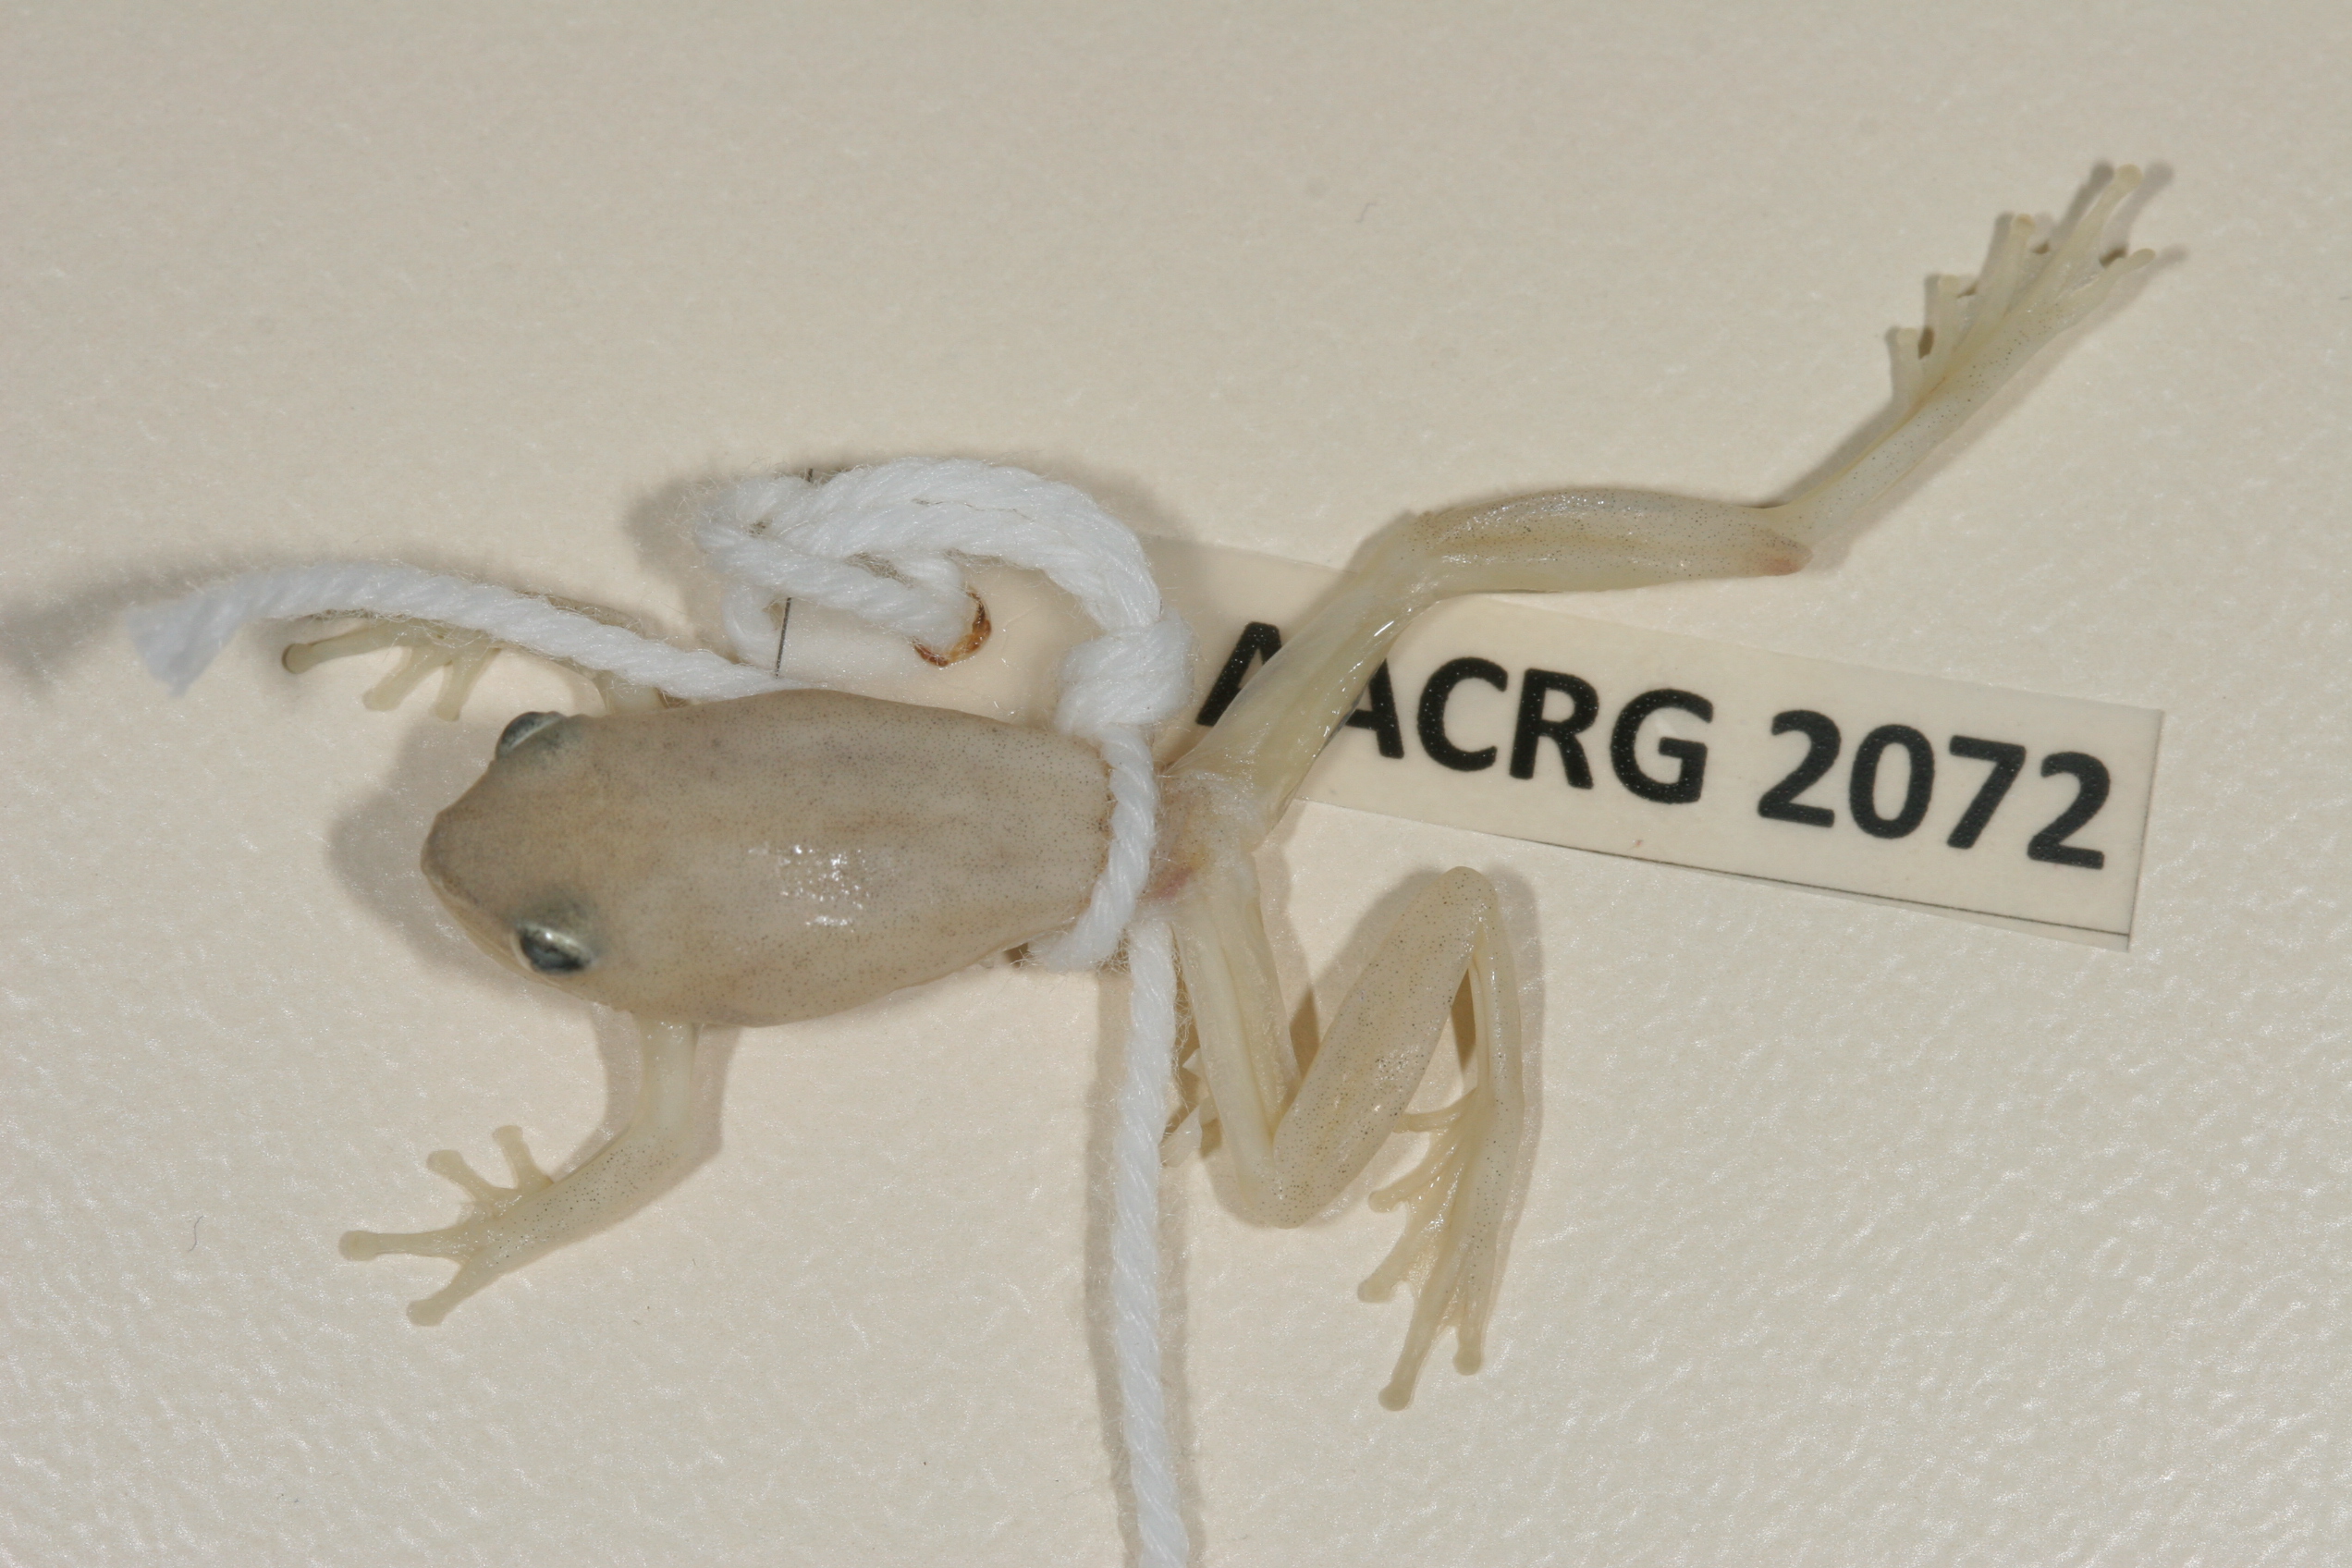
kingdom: Animalia
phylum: Chordata
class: Amphibia
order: Anura
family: Hyperoliidae
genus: Hyperolius
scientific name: Hyperolius pusillus
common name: Water lily reed frog
